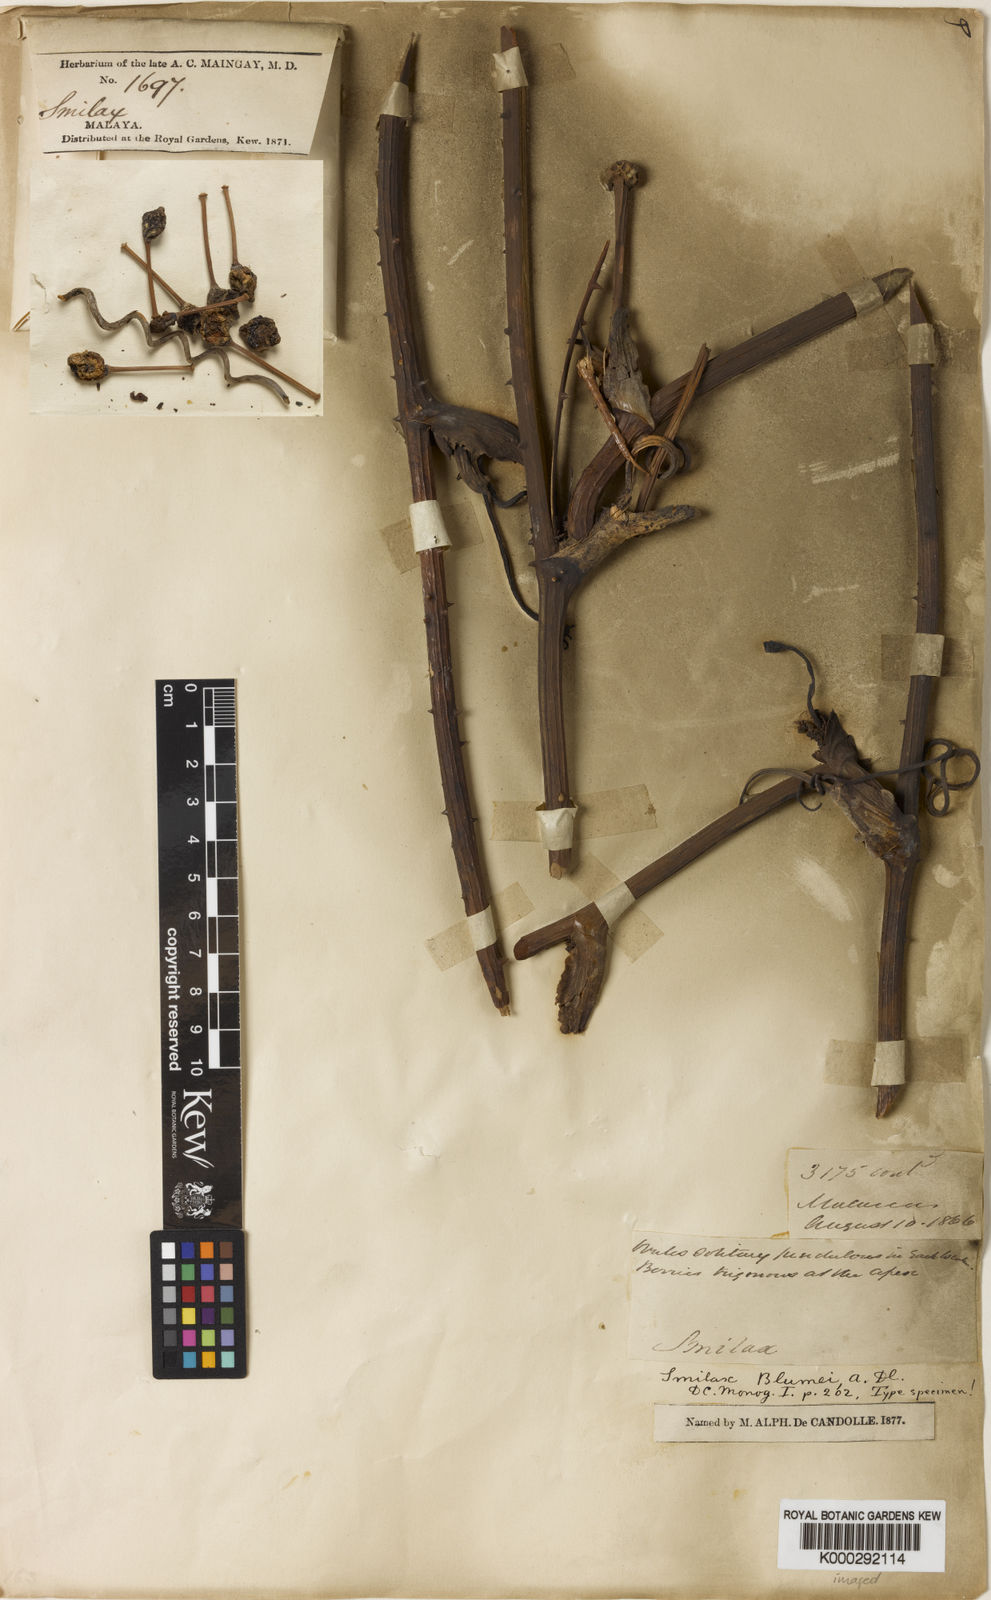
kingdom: Plantae
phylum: Tracheophyta
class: Liliopsida
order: Liliales
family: Smilacaceae
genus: Smilax
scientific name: Smilax blumei
